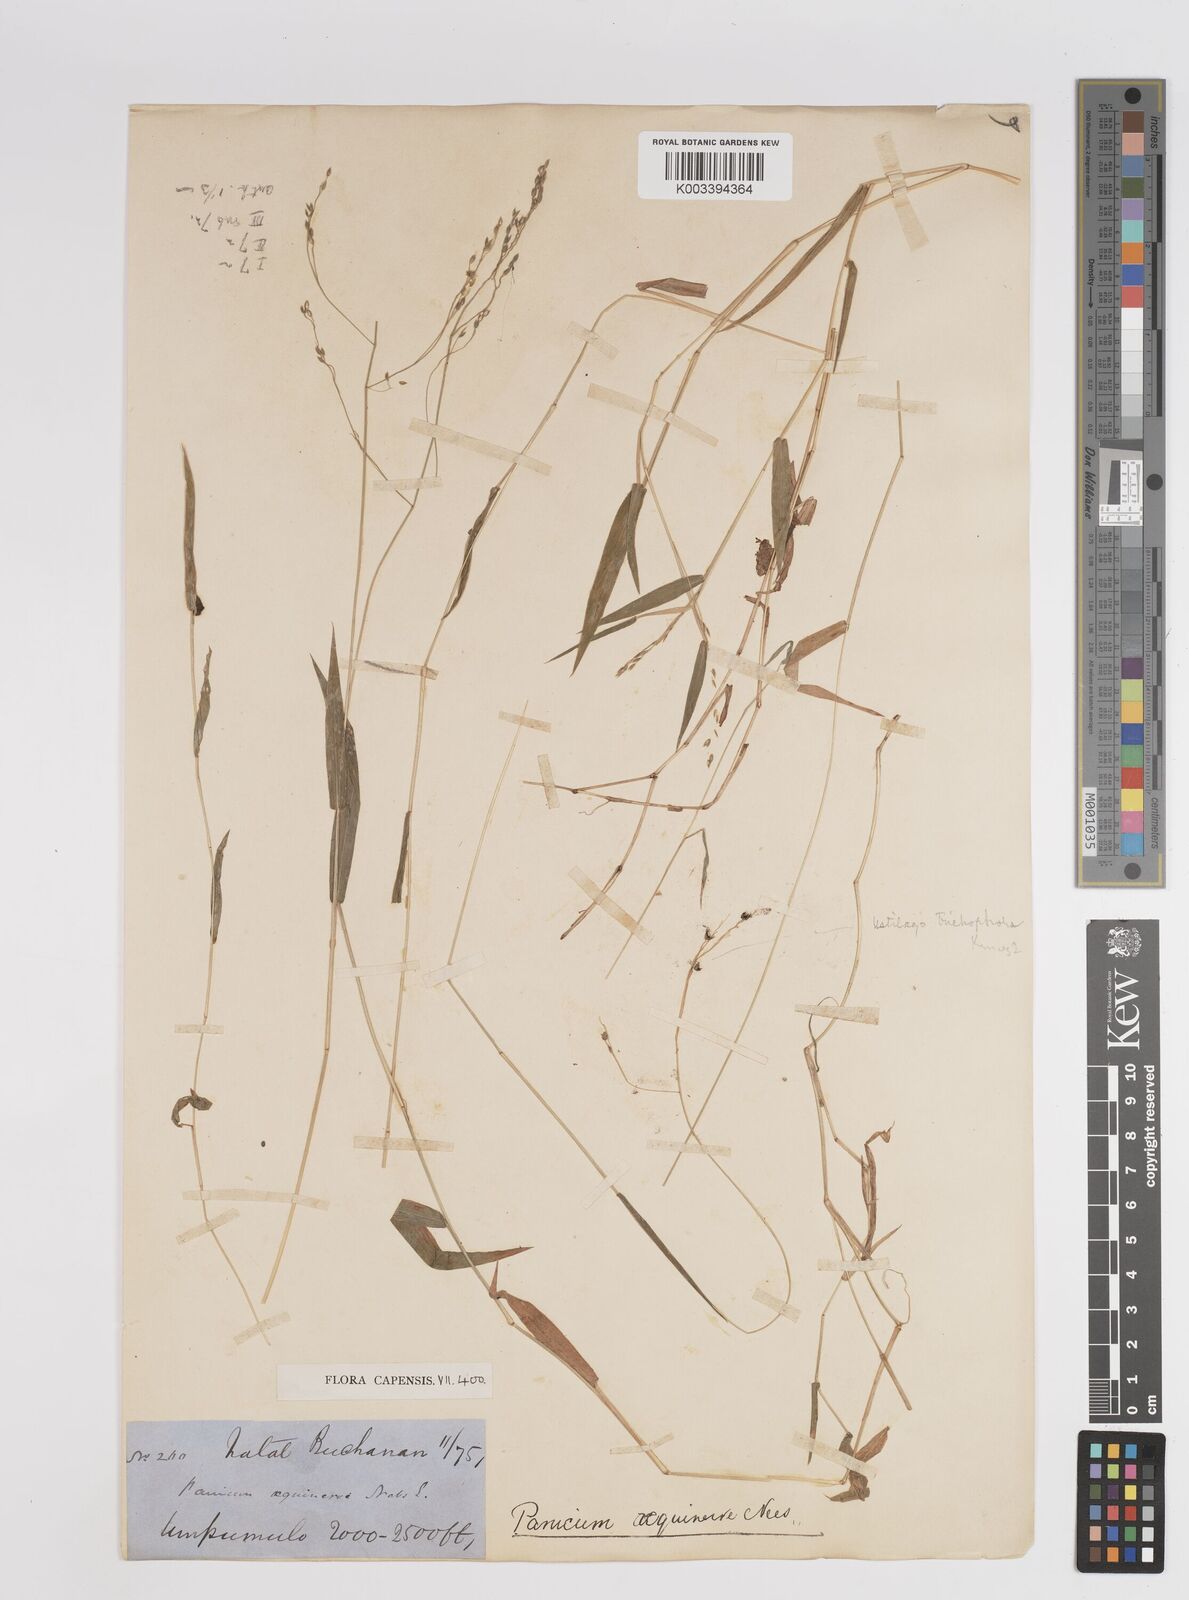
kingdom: Plantae
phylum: Tracheophyta
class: Liliopsida
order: Poales
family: Poaceae
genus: Panicum
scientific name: Panicum aequinerve
